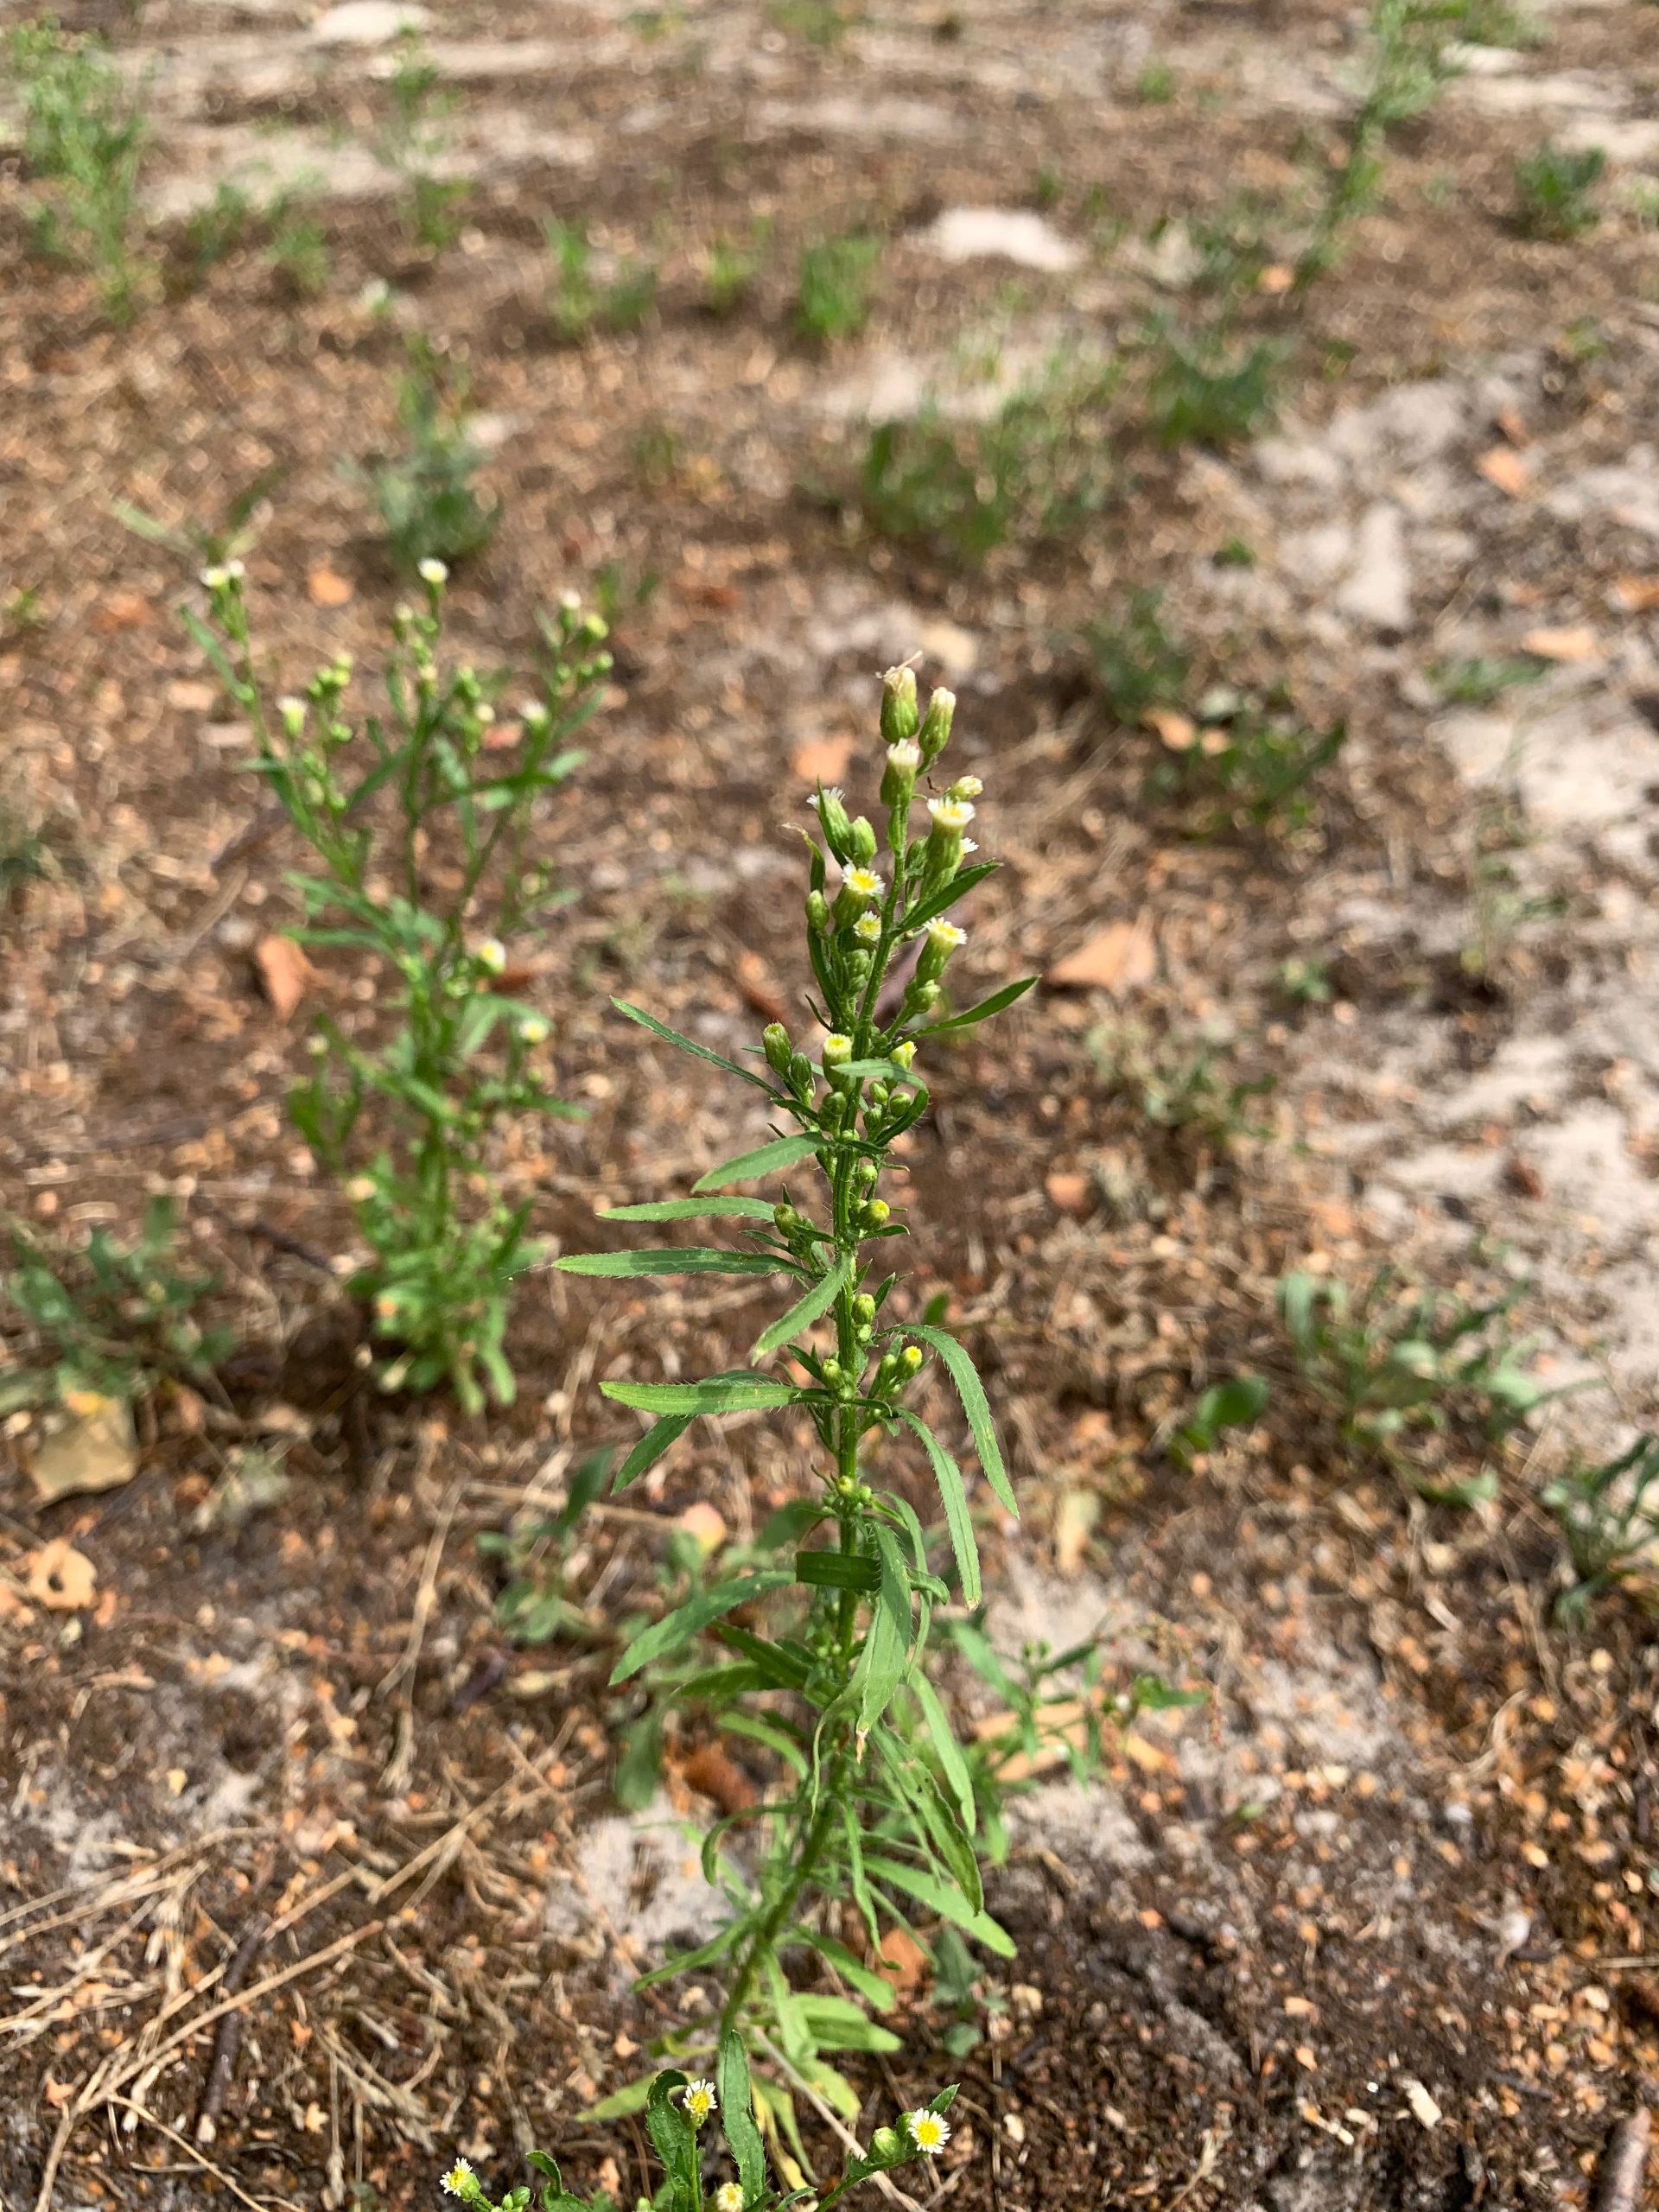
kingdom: Plantae
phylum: Tracheophyta
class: Magnoliopsida
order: Asterales
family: Asteraceae
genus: Erigeron
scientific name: Erigeron canadensis
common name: Kanadisk bakkestjerne
